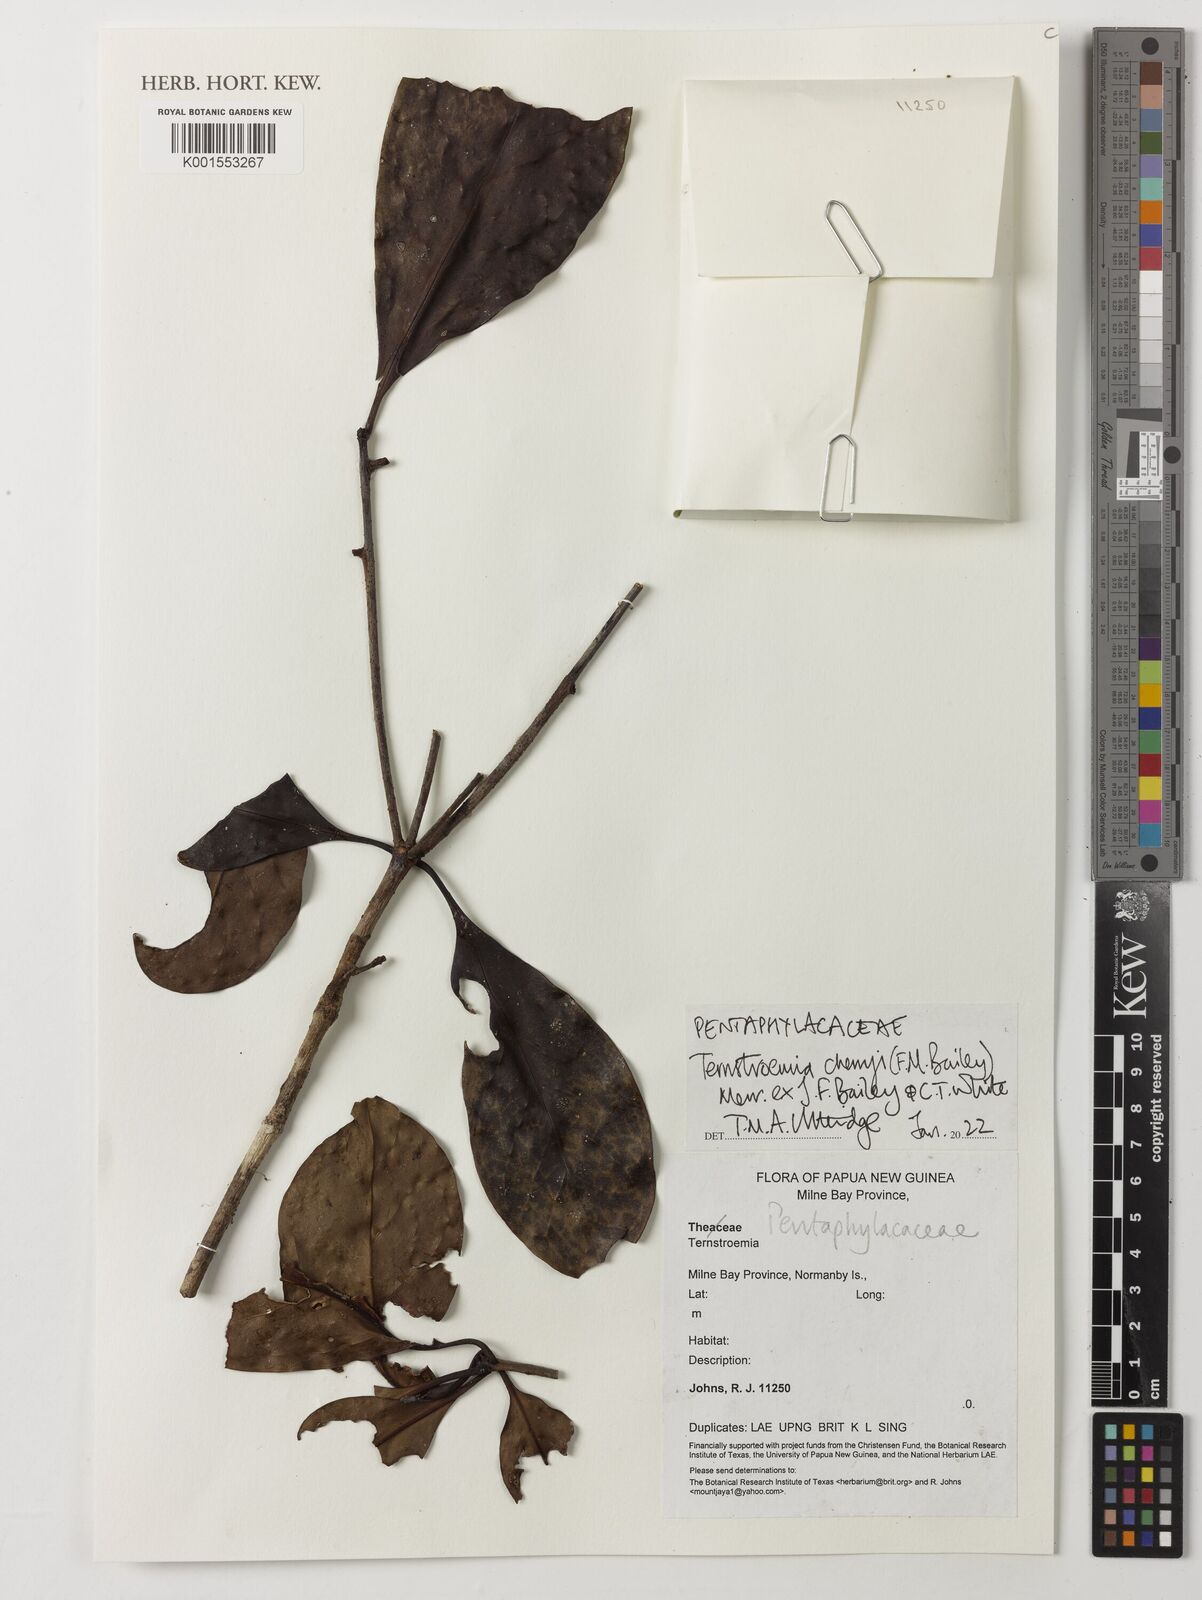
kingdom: Plantae
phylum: Tracheophyta
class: Magnoliopsida
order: Ericales
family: Pentaphylacaceae
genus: Ternstroemia
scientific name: Ternstroemia cherryi
